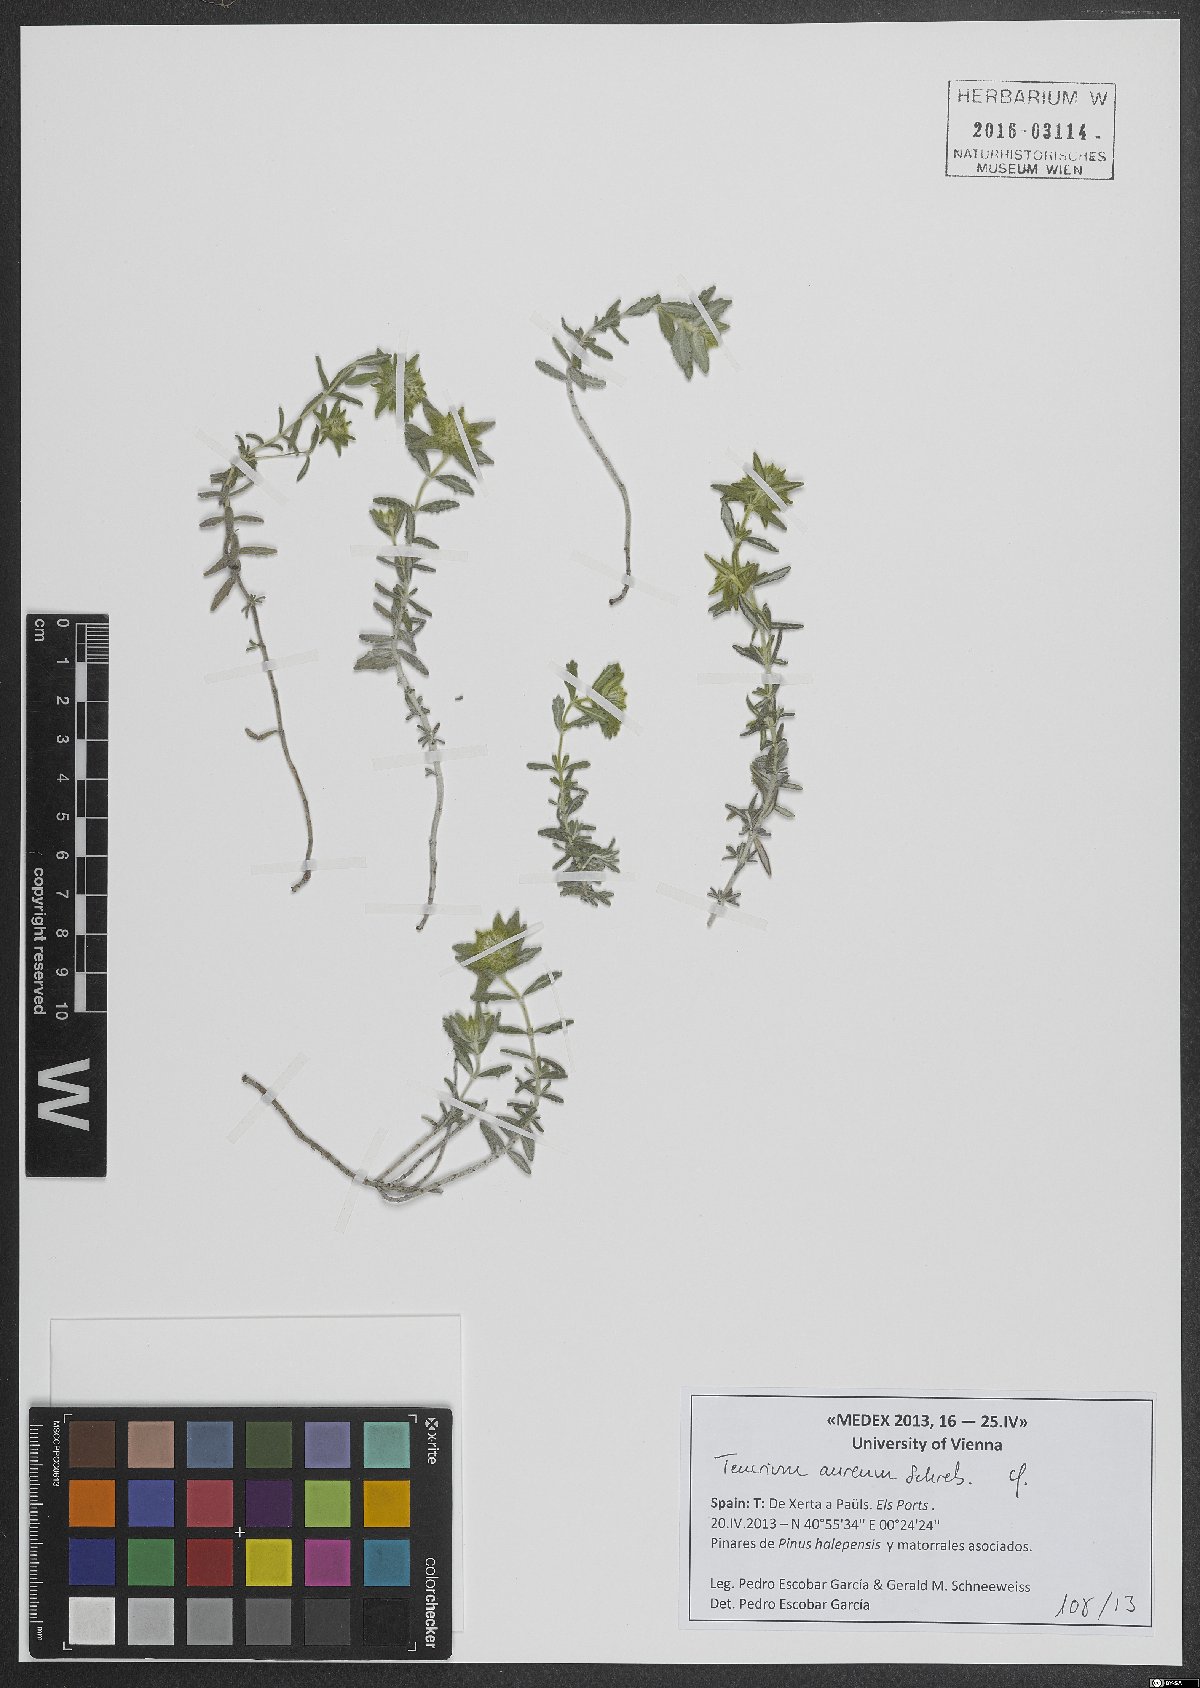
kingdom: Plantae
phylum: Tracheophyta
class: Magnoliopsida
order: Lamiales
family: Lamiaceae
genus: Teucrium
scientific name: Teucrium aureum
